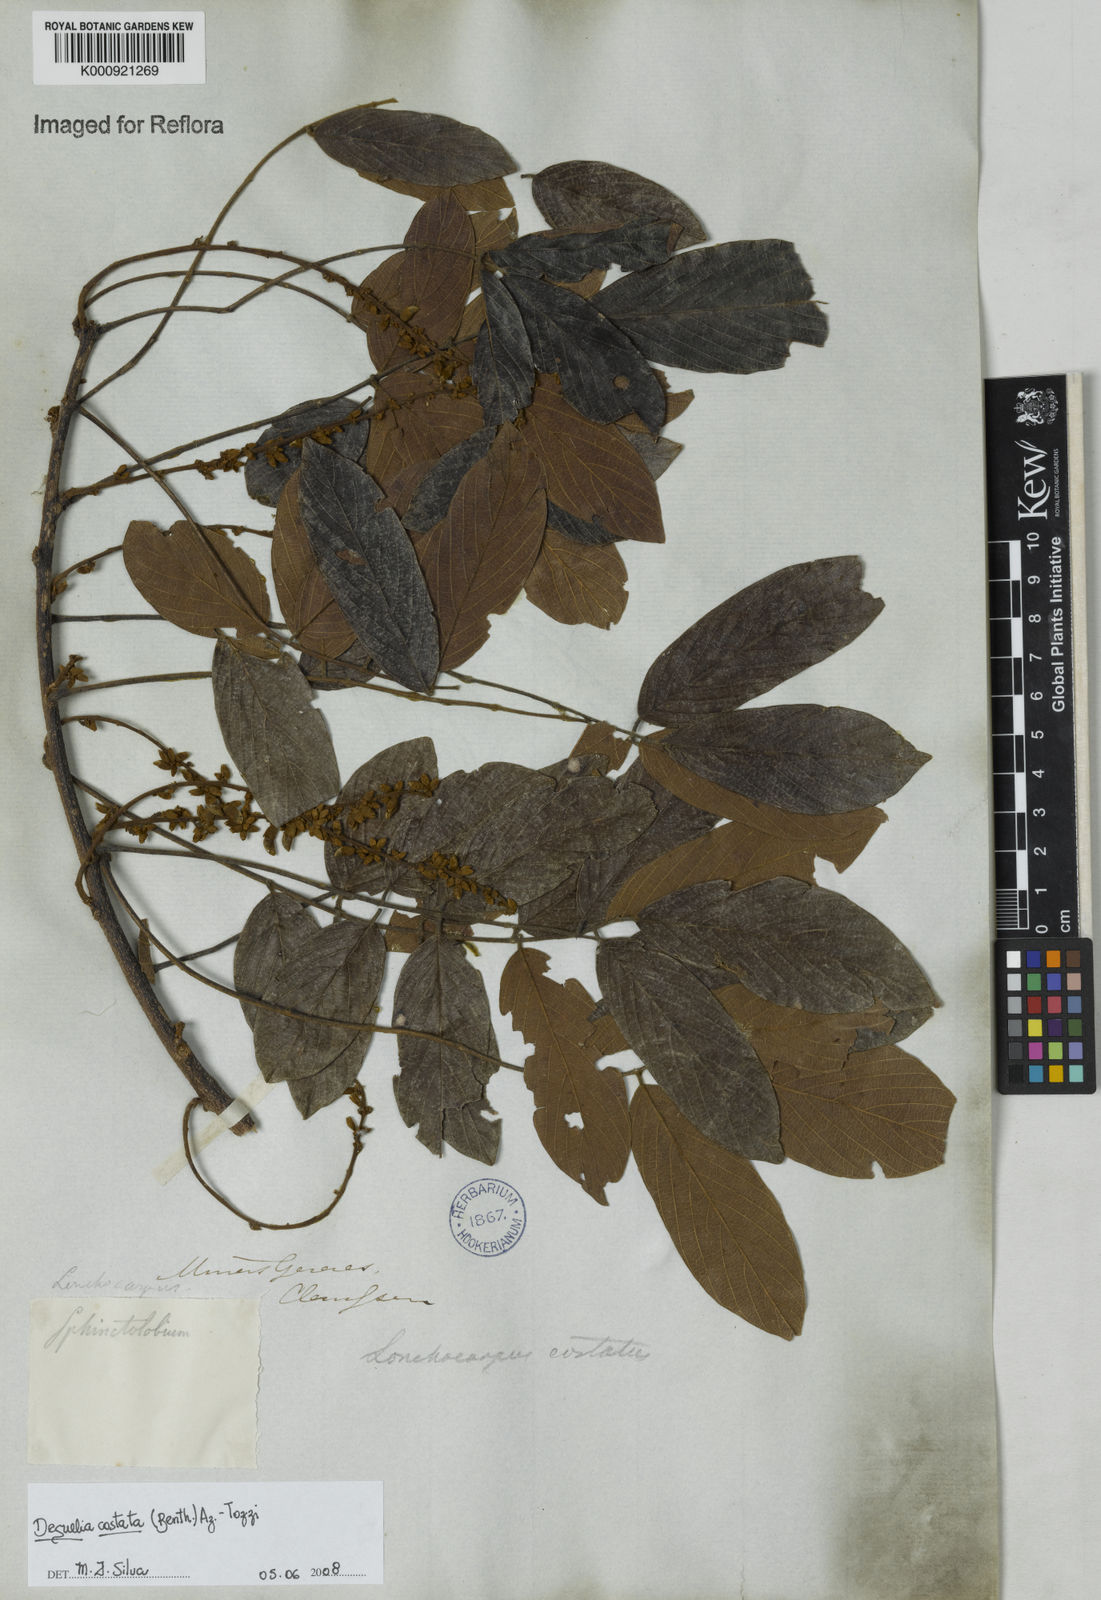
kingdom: Plantae
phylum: Tracheophyta
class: Magnoliopsida
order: Fabales
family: Fabaceae
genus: Deguelia
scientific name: Deguelia costata
